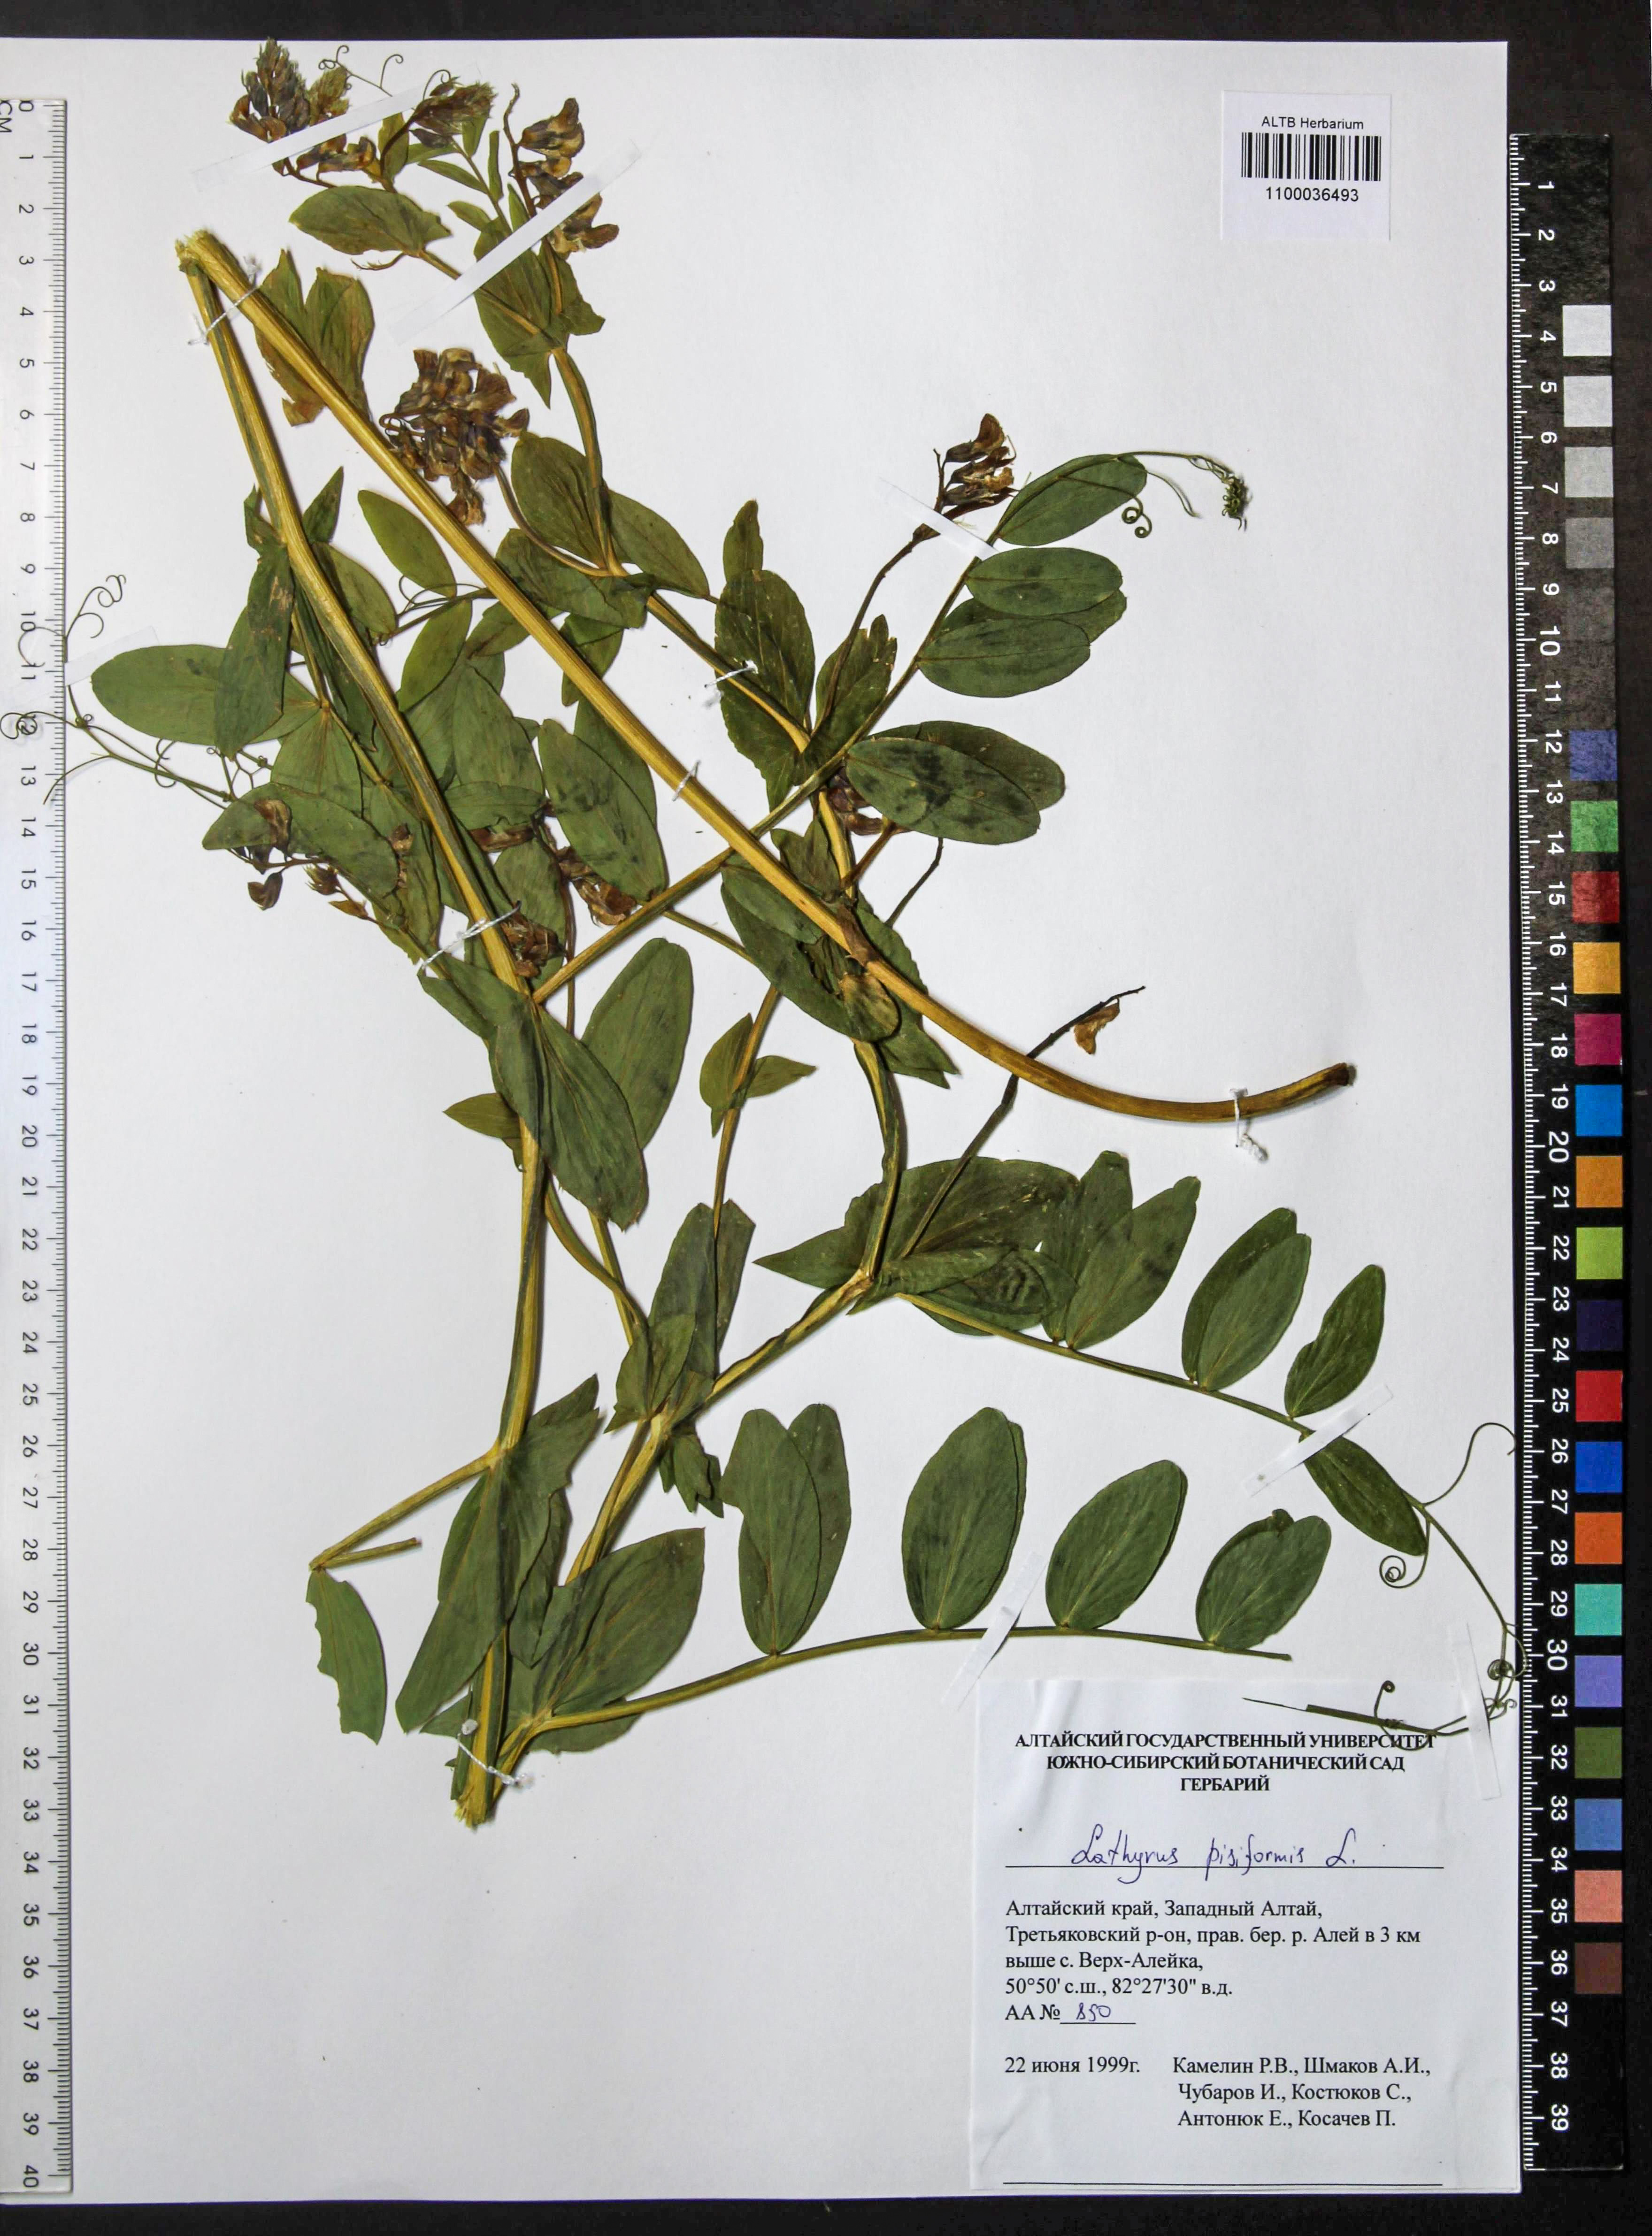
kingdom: Plantae
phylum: Tracheophyta
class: Magnoliopsida
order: Fabales
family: Fabaceae
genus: Lathyrus
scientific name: Lathyrus pisiformis
